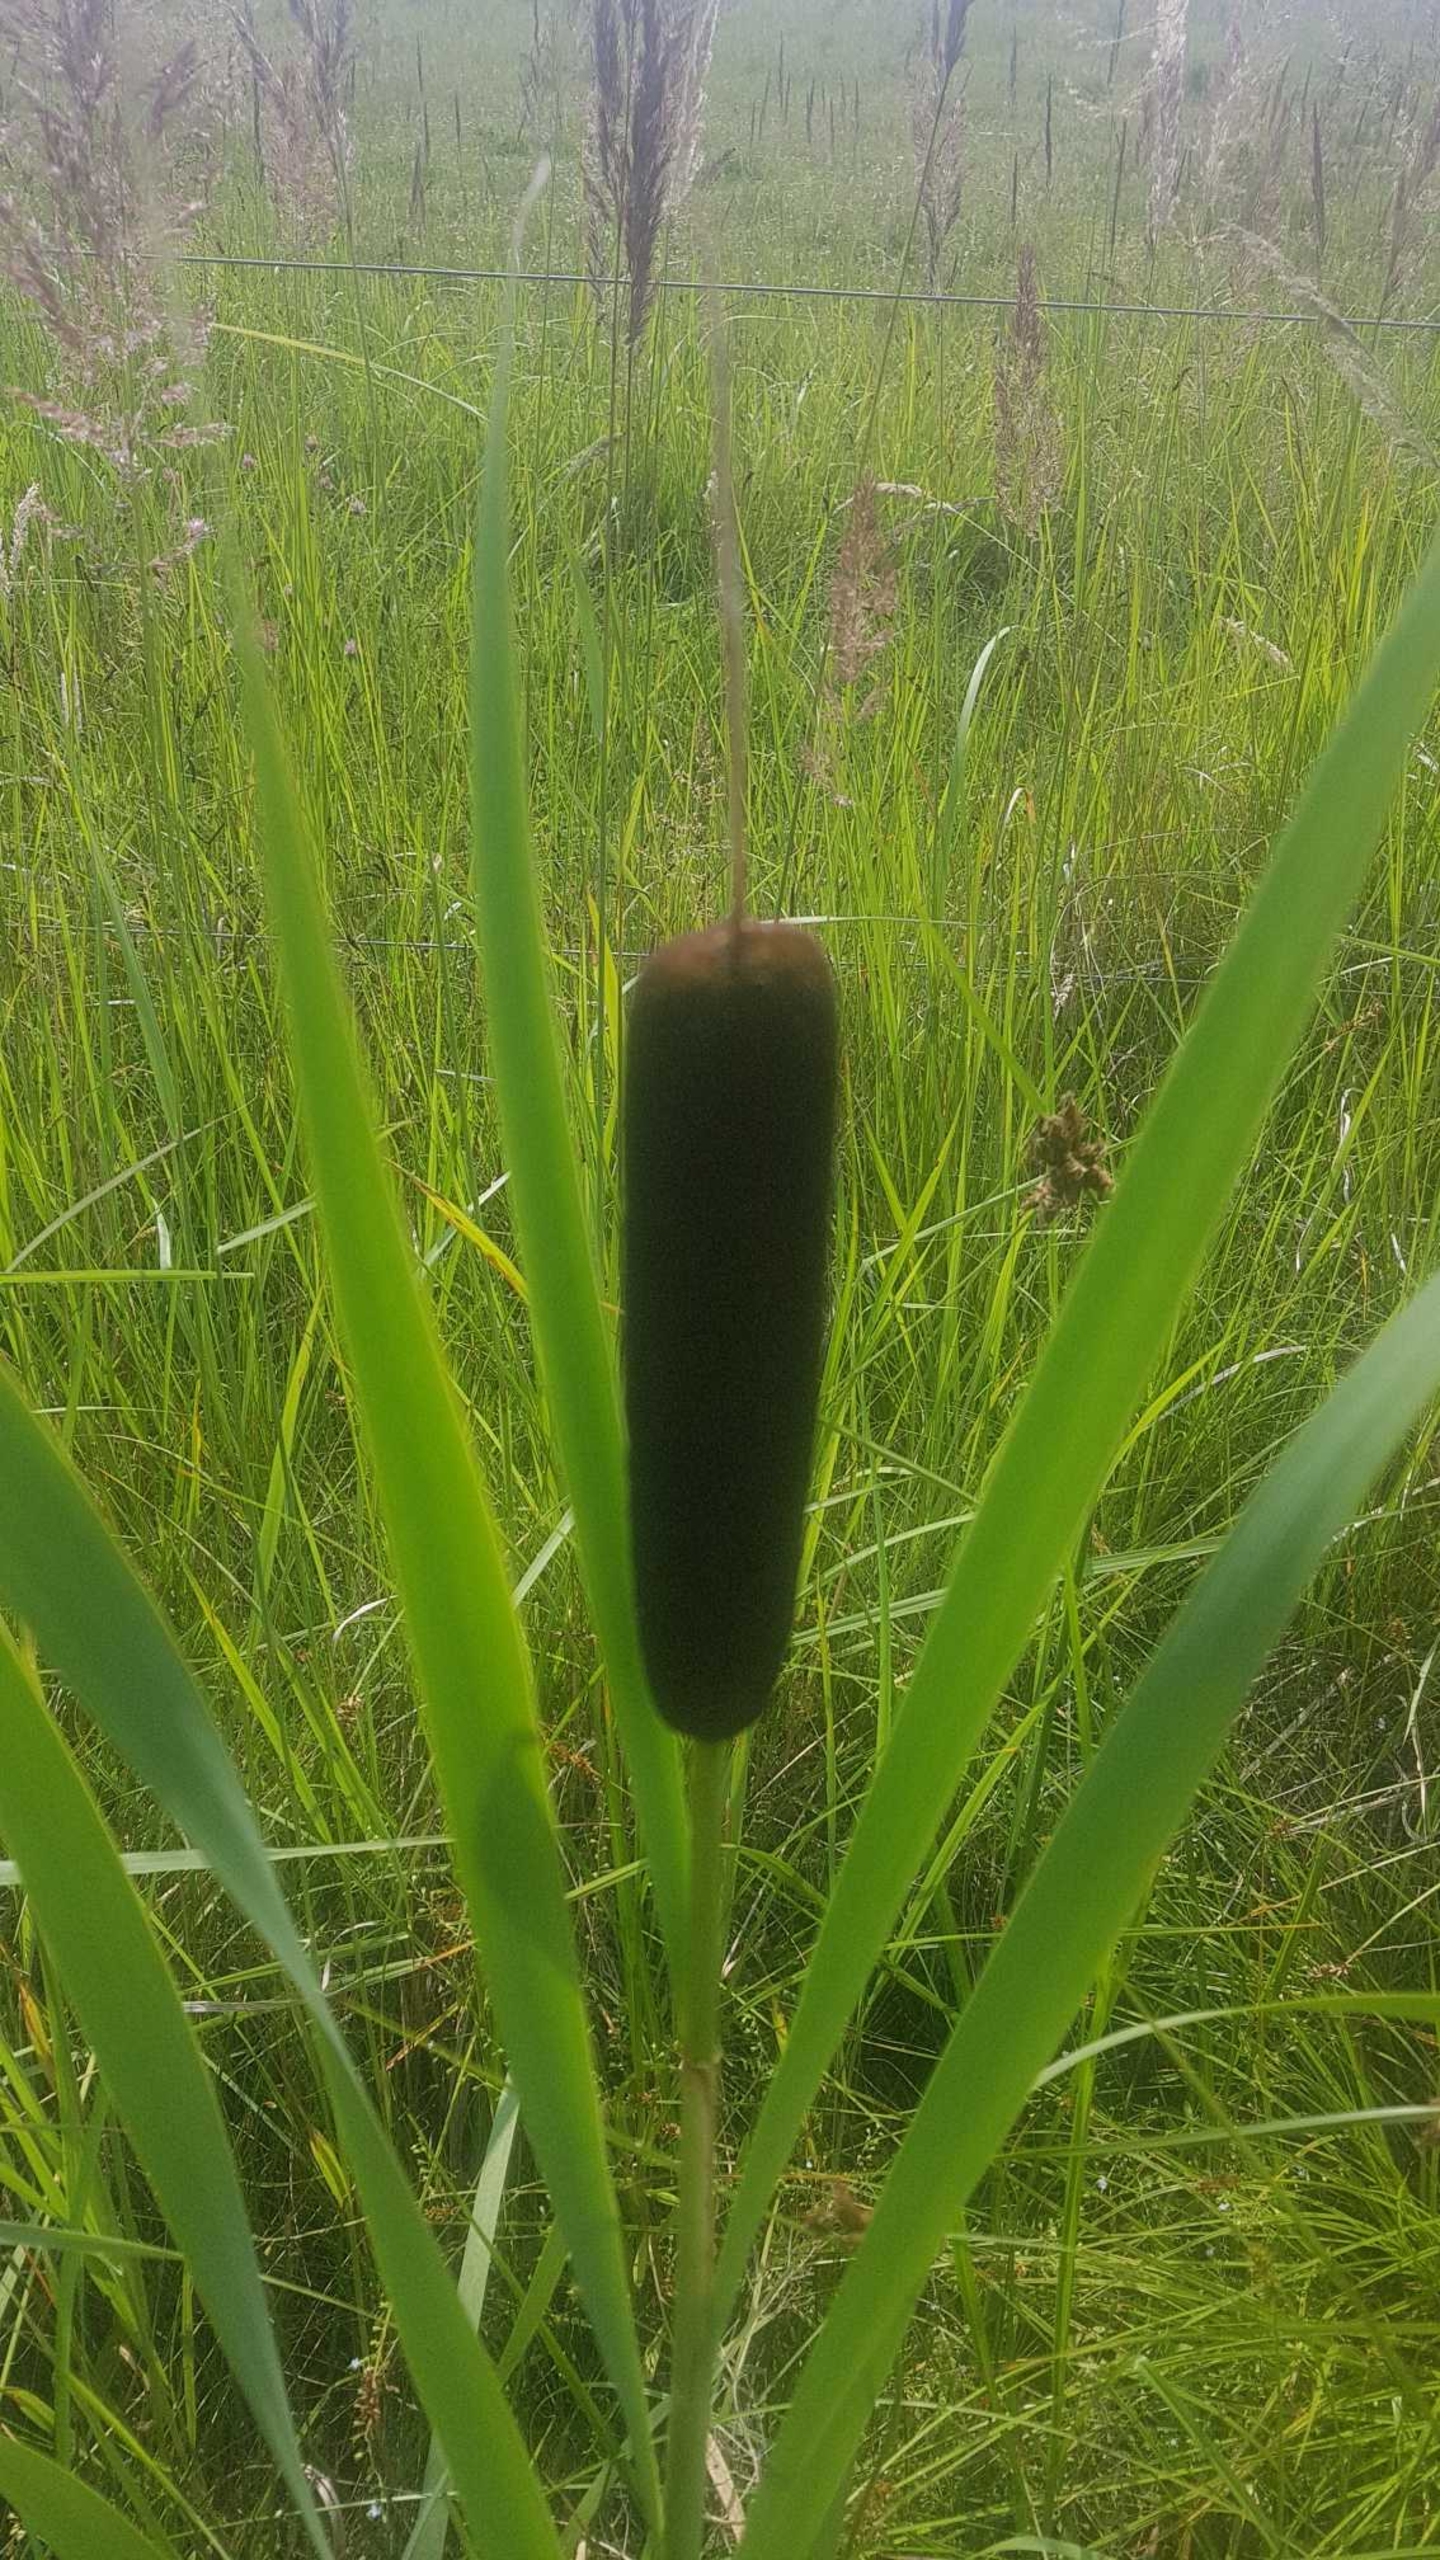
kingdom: Plantae
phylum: Tracheophyta
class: Liliopsida
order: Poales
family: Typhaceae
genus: Typha
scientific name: Typha latifolia
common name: Bredbladet dunhammer
